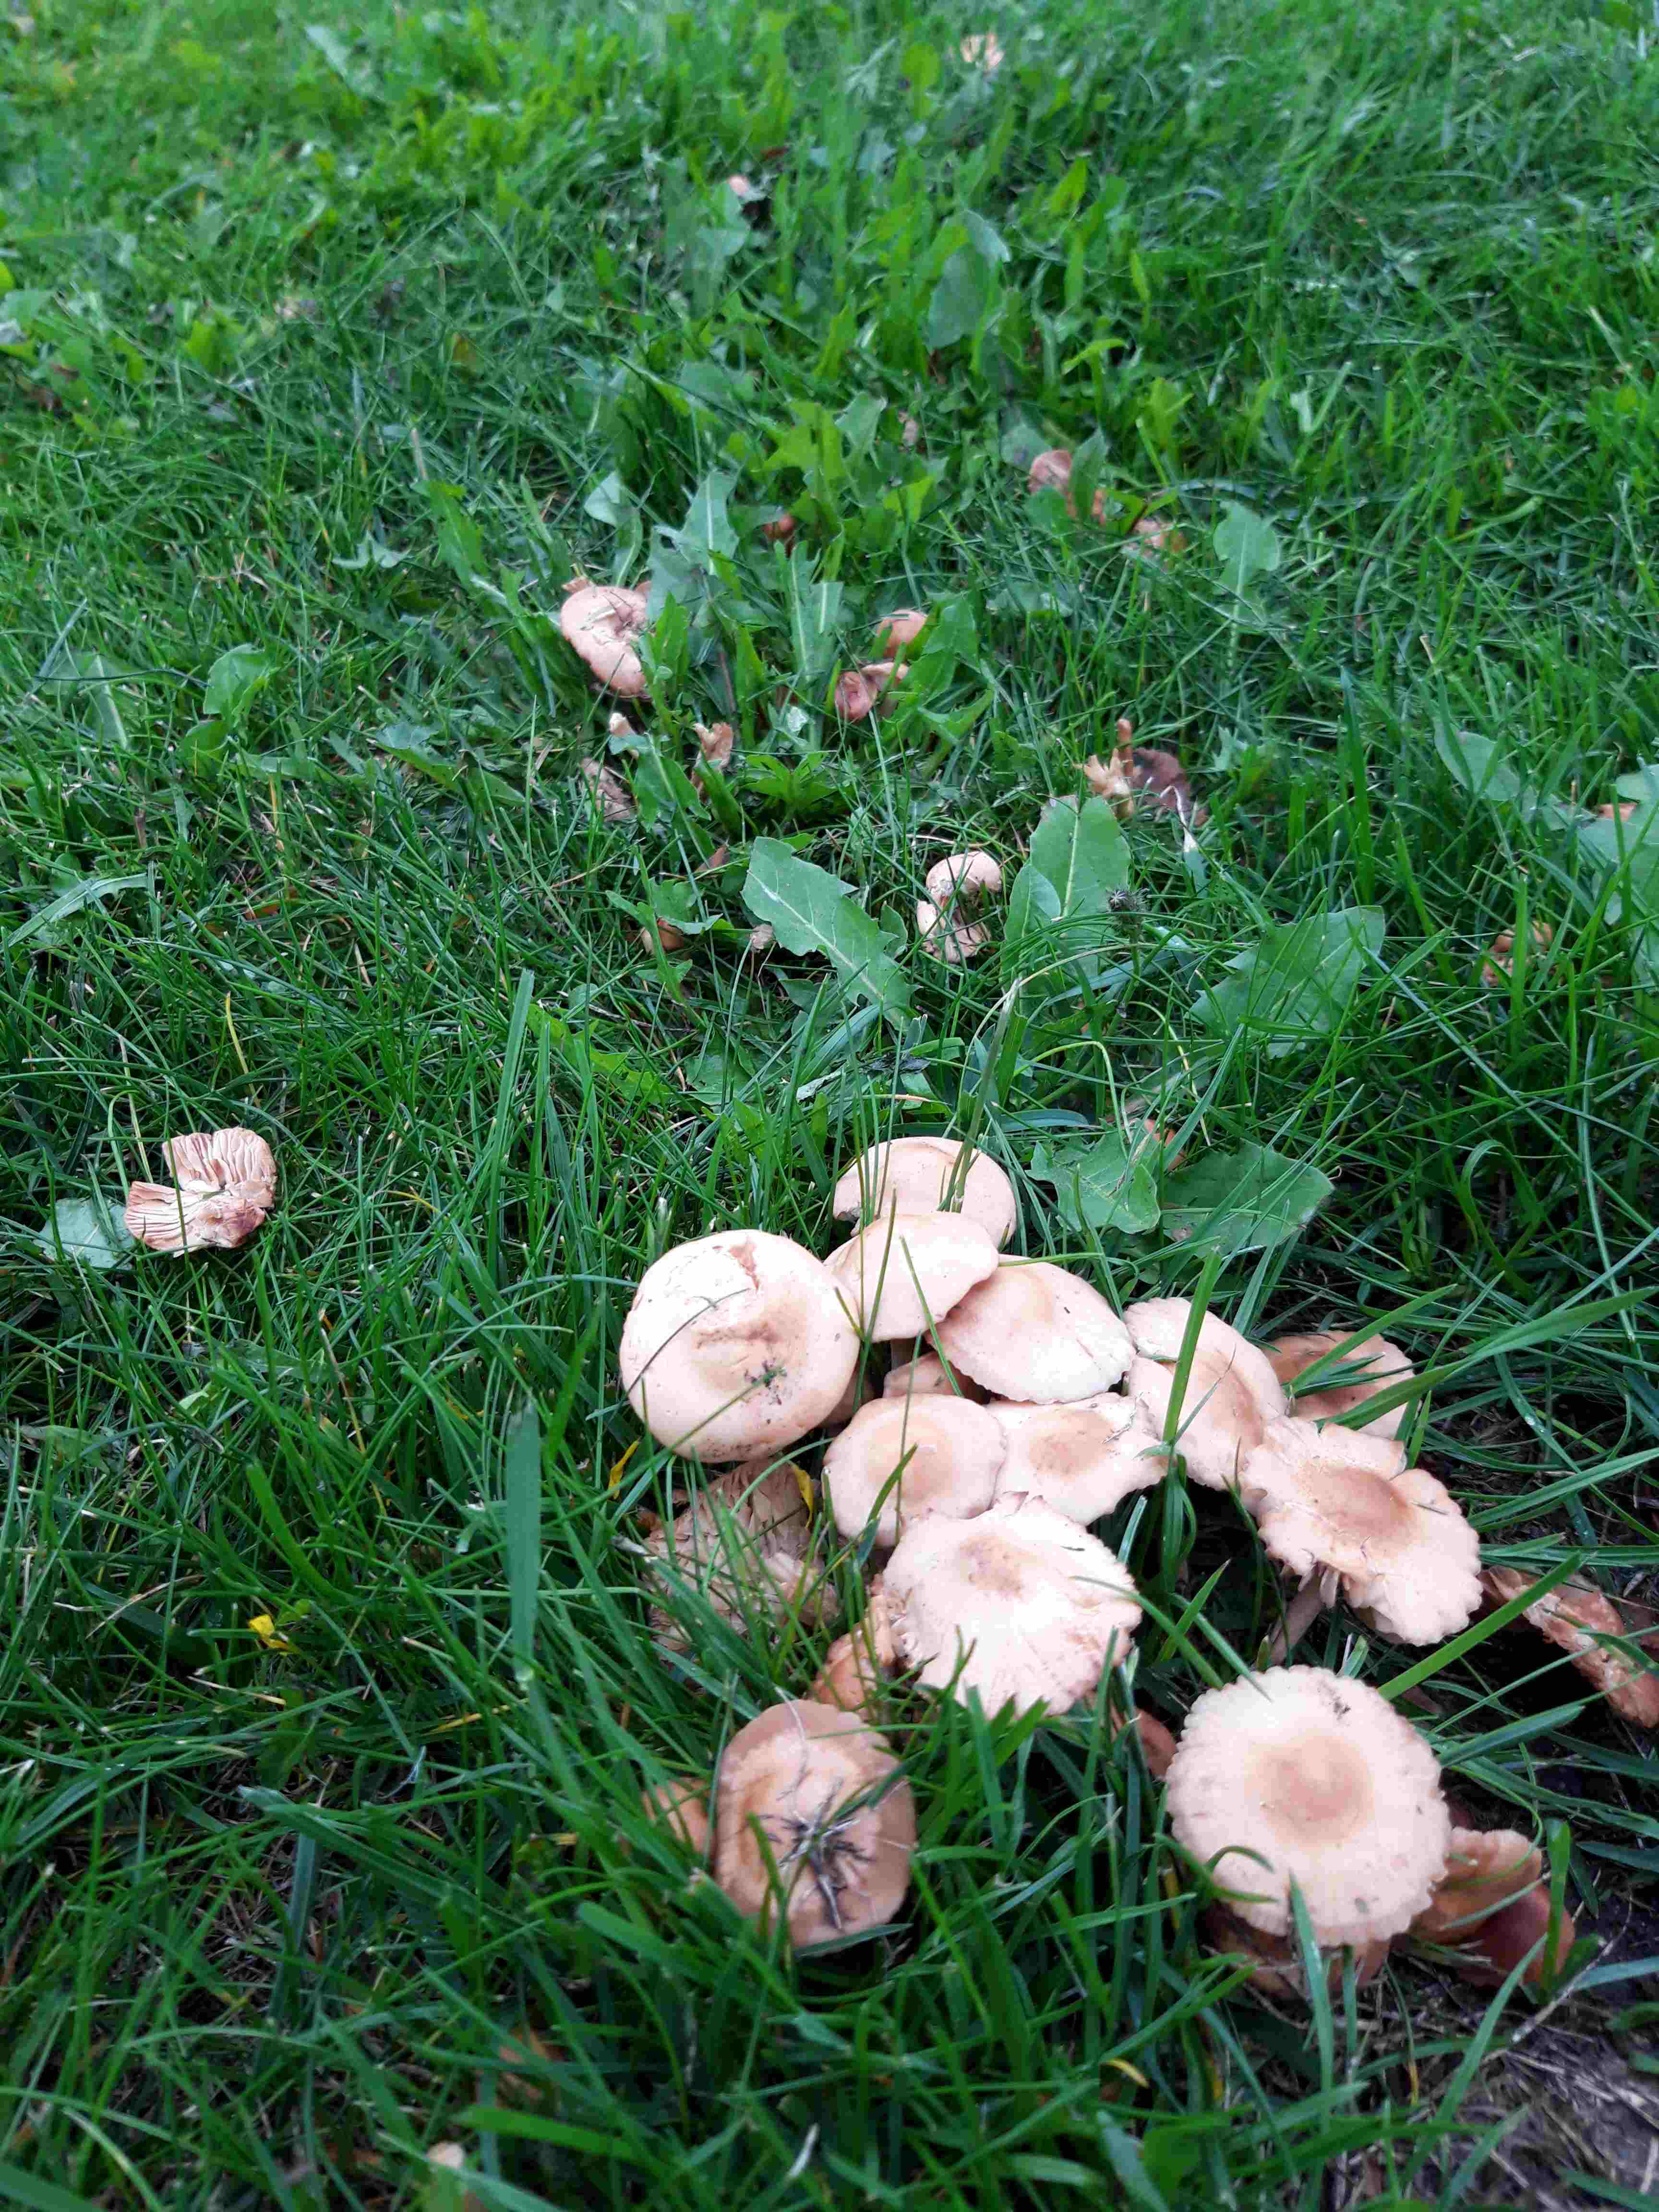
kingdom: Fungi
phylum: Basidiomycota
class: Agaricomycetes
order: Agaricales
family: Marasmiaceae
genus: Marasmius
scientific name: Marasmius oreades
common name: elledans-bruskhat
